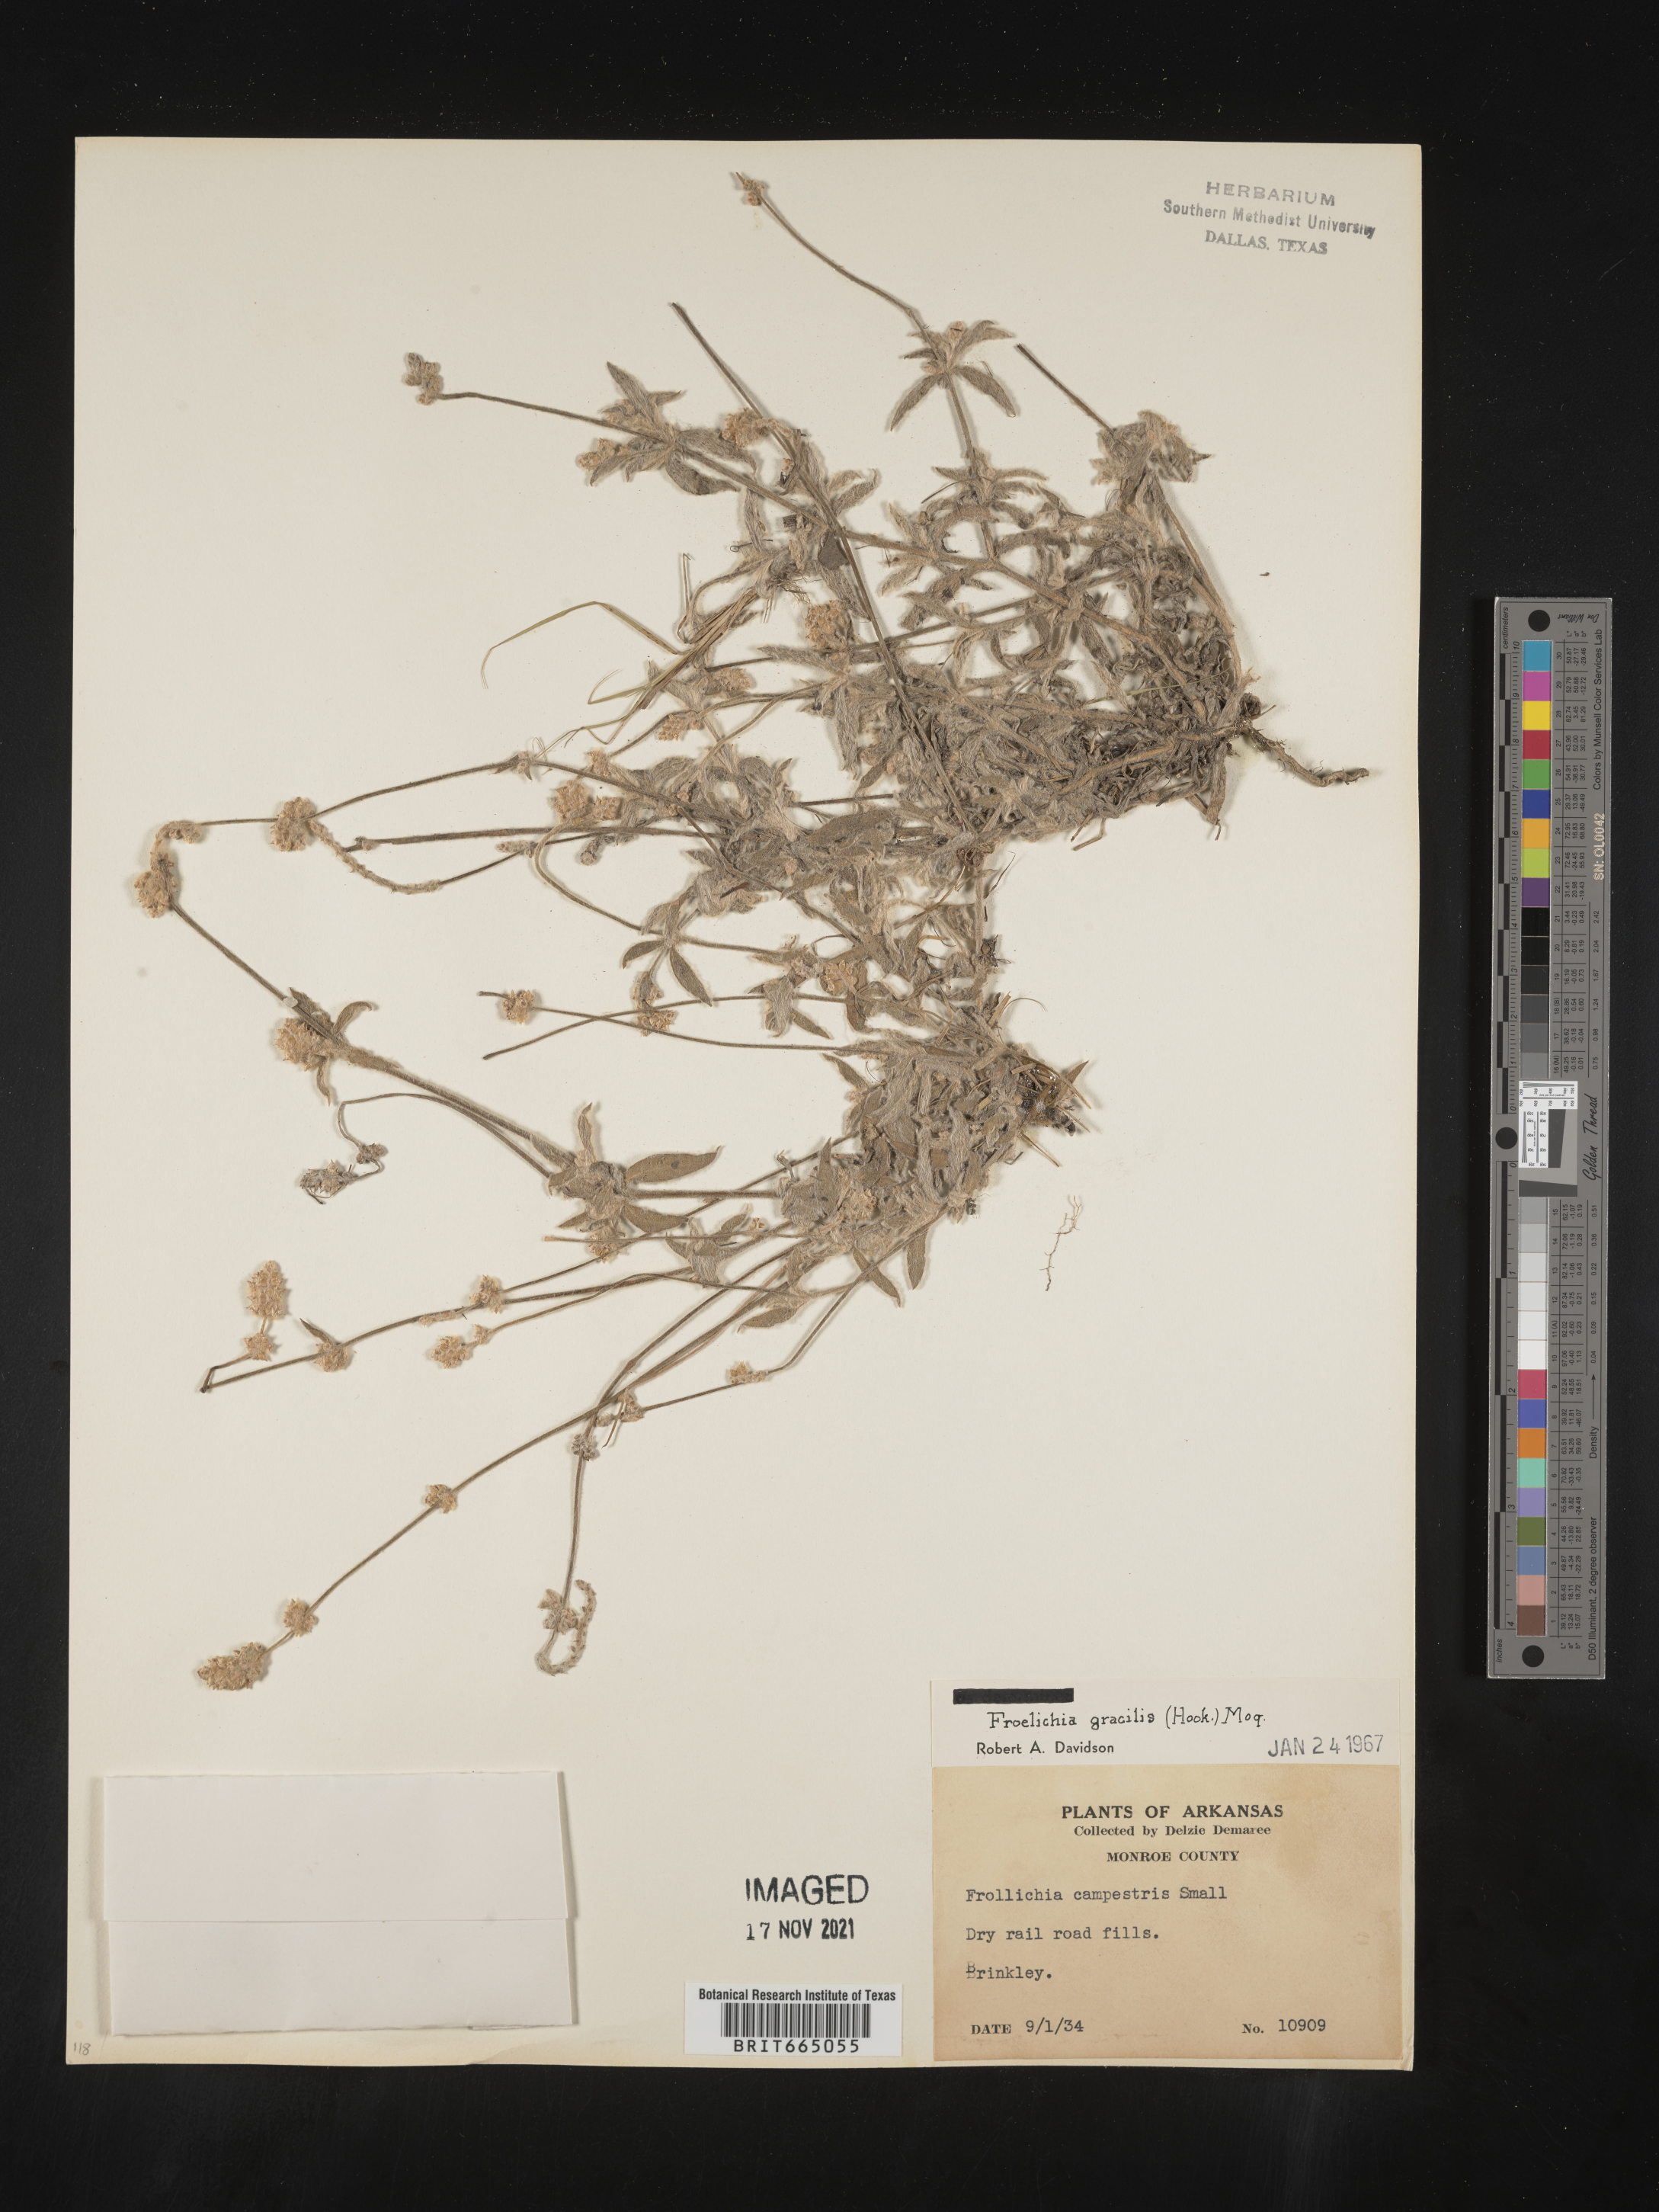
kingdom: Plantae
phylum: Tracheophyta
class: Magnoliopsida
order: Caryophyllales
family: Amaranthaceae
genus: Froelichia
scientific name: Froelichia gracilis
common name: Slender cottonweed
